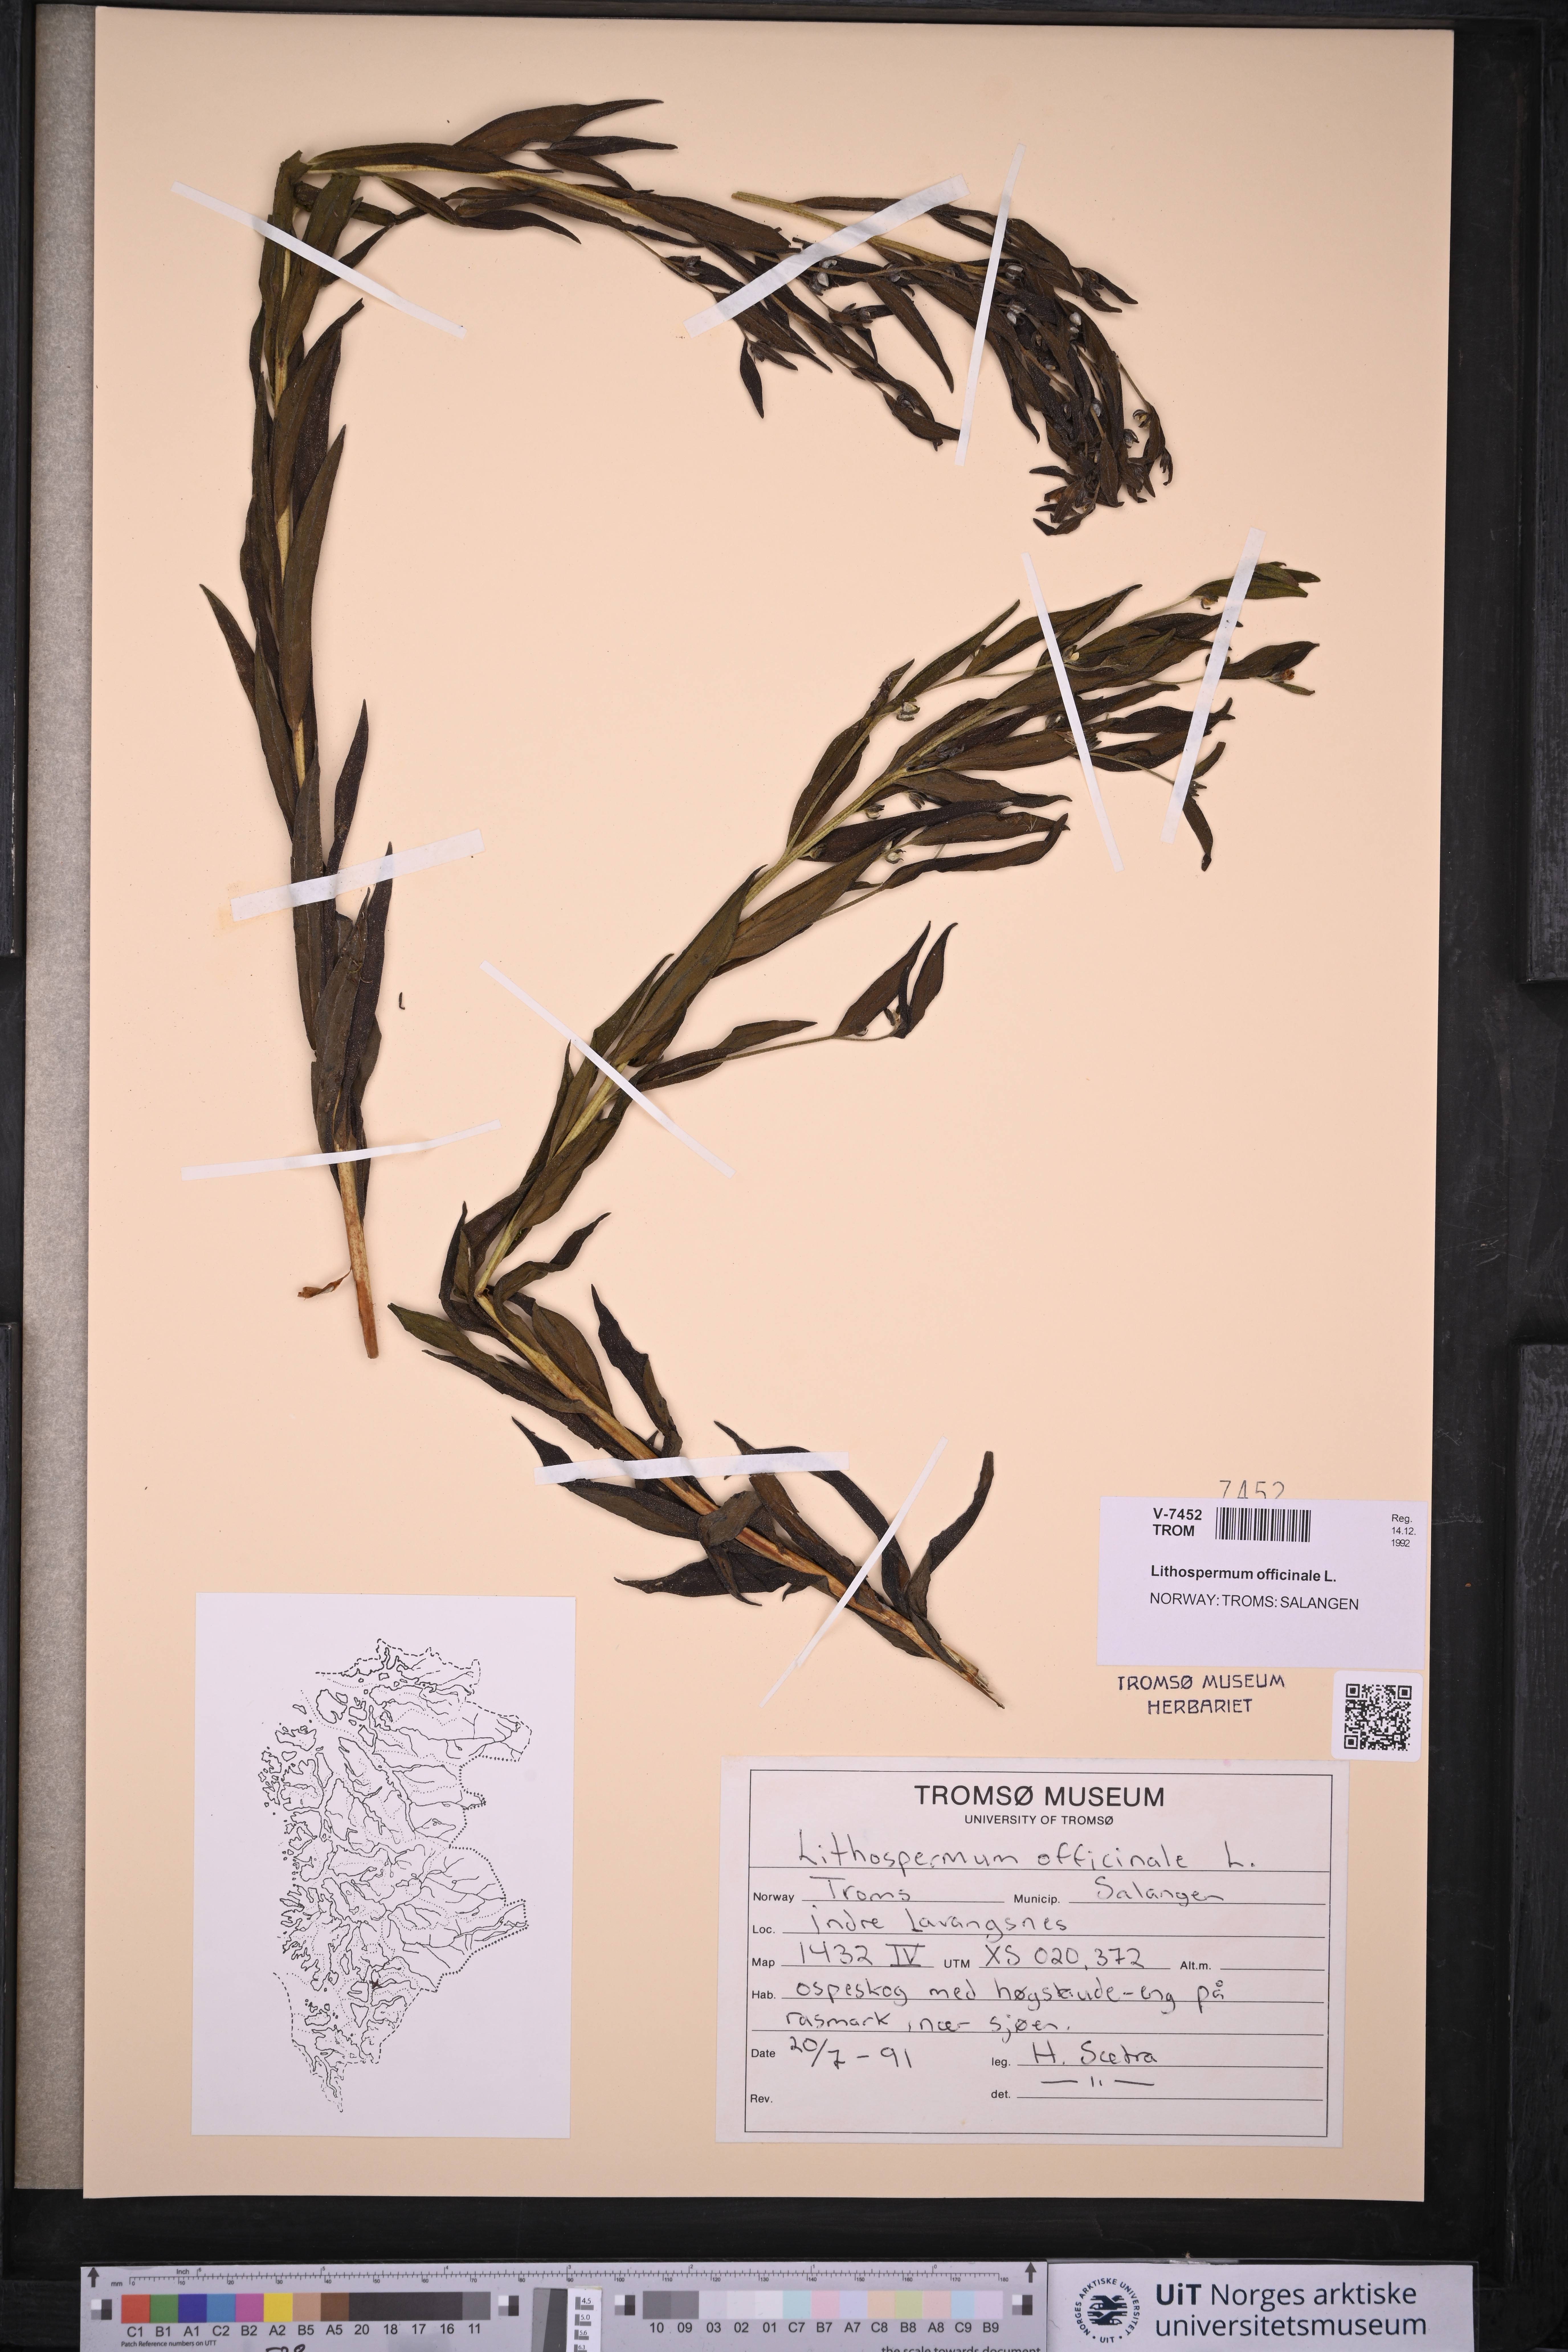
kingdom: Plantae
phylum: Tracheophyta
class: Magnoliopsida
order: Boraginales
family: Boraginaceae
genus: Lithospermum
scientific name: Lithospermum officinale
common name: Common gromwell
